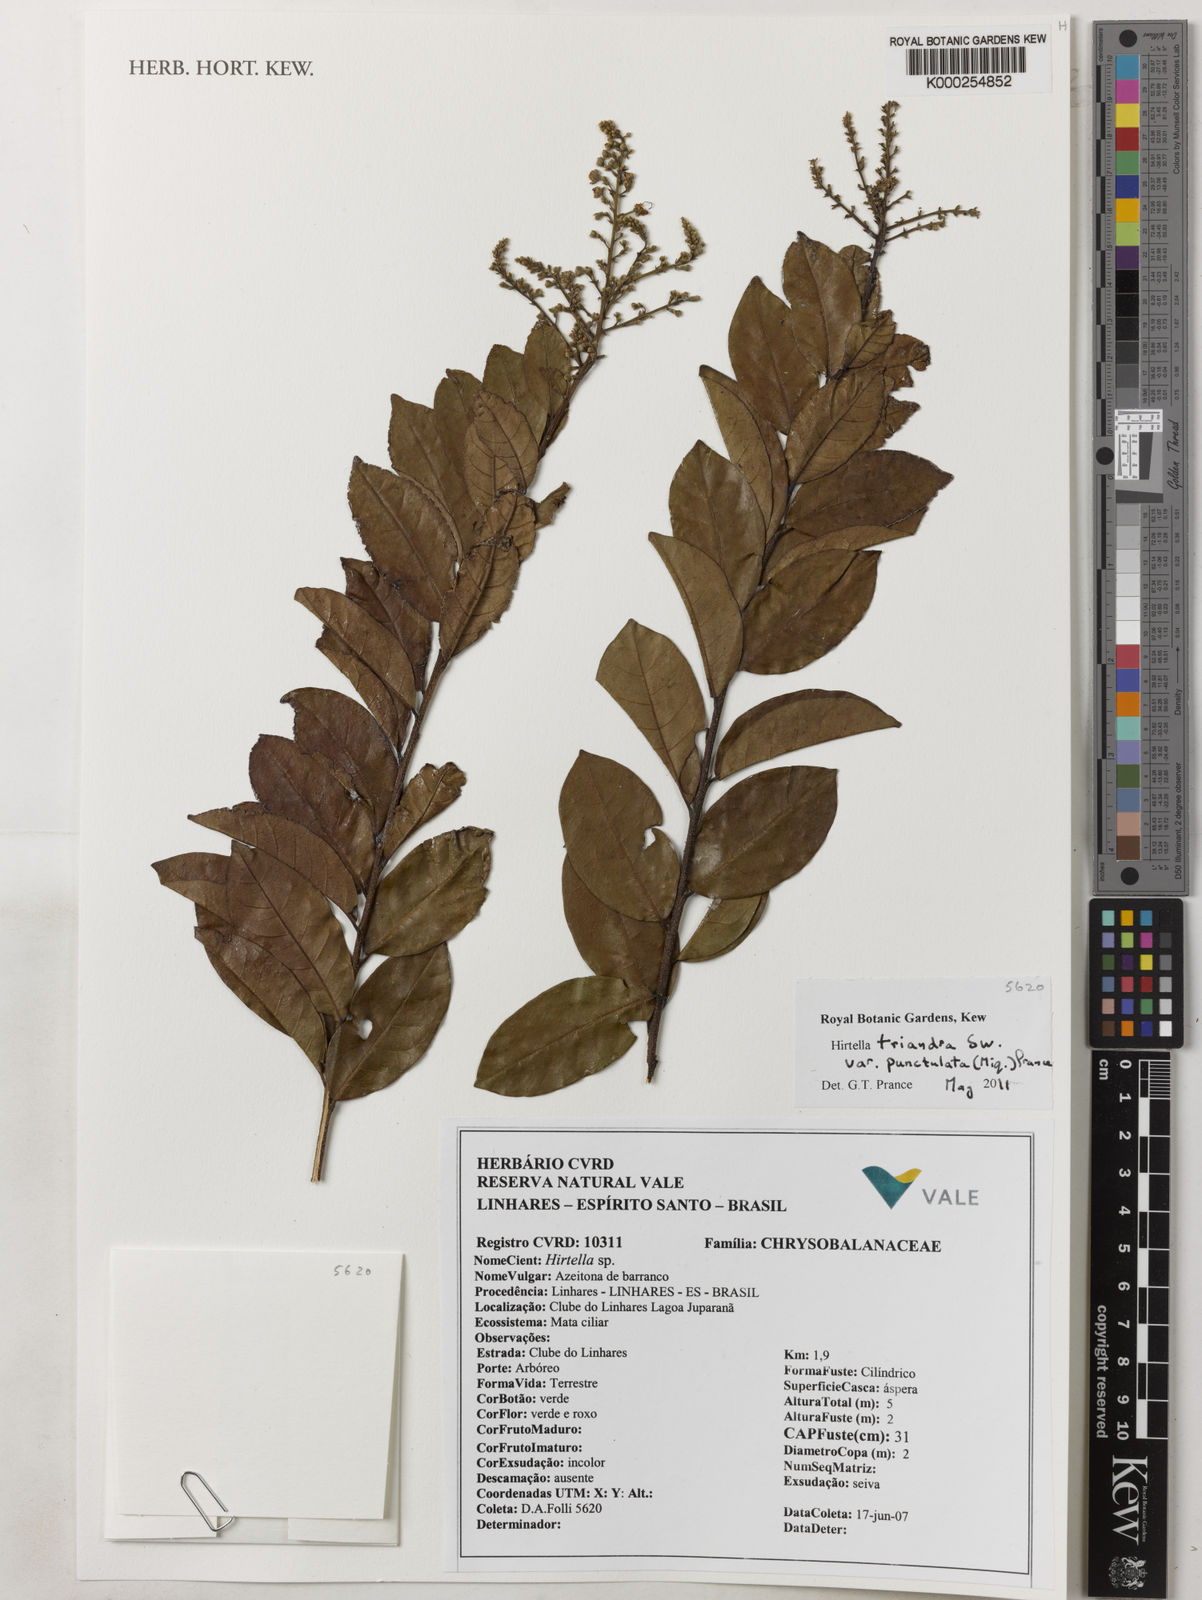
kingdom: Plantae
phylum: Tracheophyta
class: Magnoliopsida
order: Malpighiales
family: Chrysobalanaceae
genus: Hirtella
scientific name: Hirtella triandra
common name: Hairy plum
